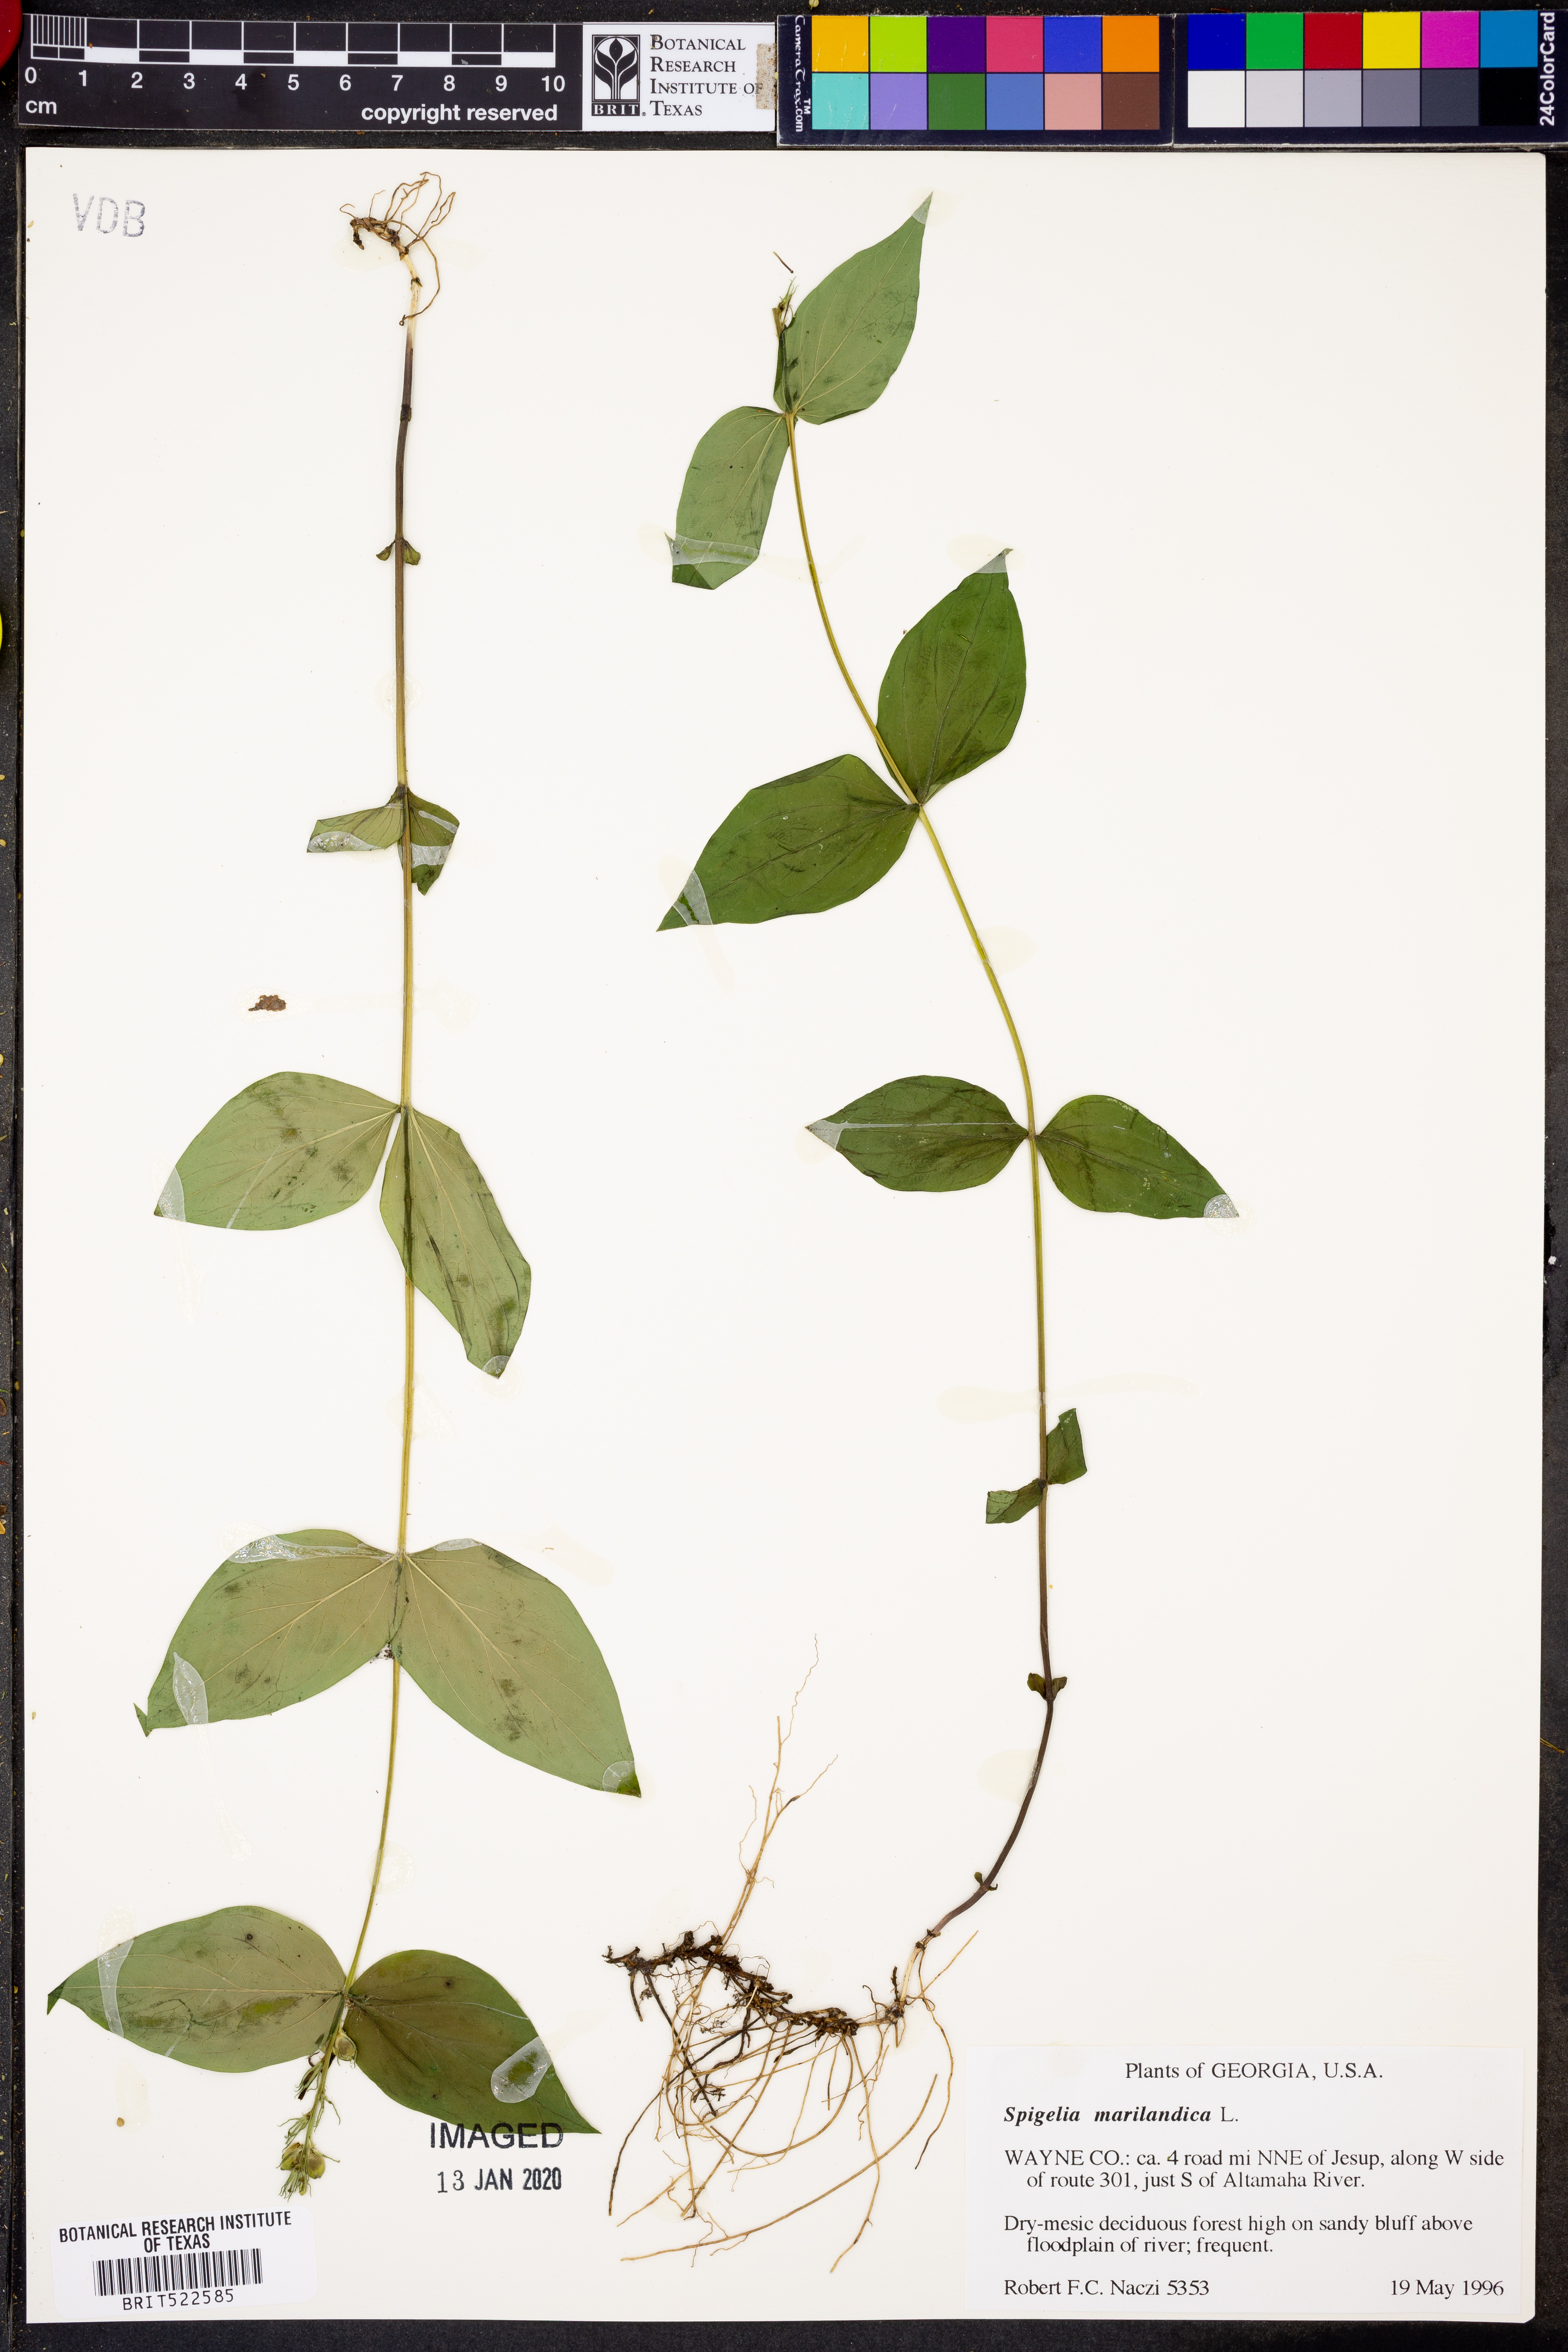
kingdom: Plantae
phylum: Tracheophyta
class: Magnoliopsida
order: Gentianales
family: Loganiaceae
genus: Spigelia
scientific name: Spigelia marilandica
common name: Indian-pink
